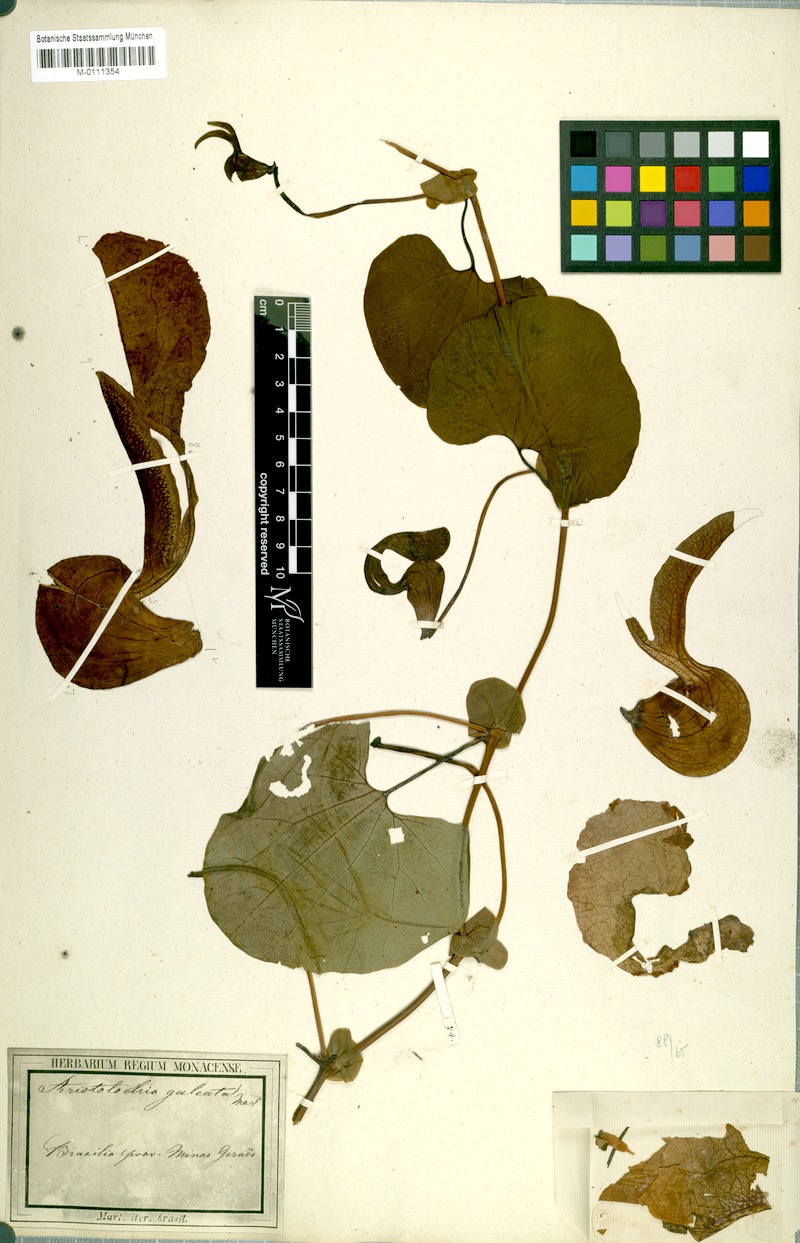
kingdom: Plantae
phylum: Tracheophyta
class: Magnoliopsida
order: Piperales
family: Aristolochiaceae
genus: Aristolochia
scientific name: Aristolochia labiata
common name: Mottled dutchman's pipe
